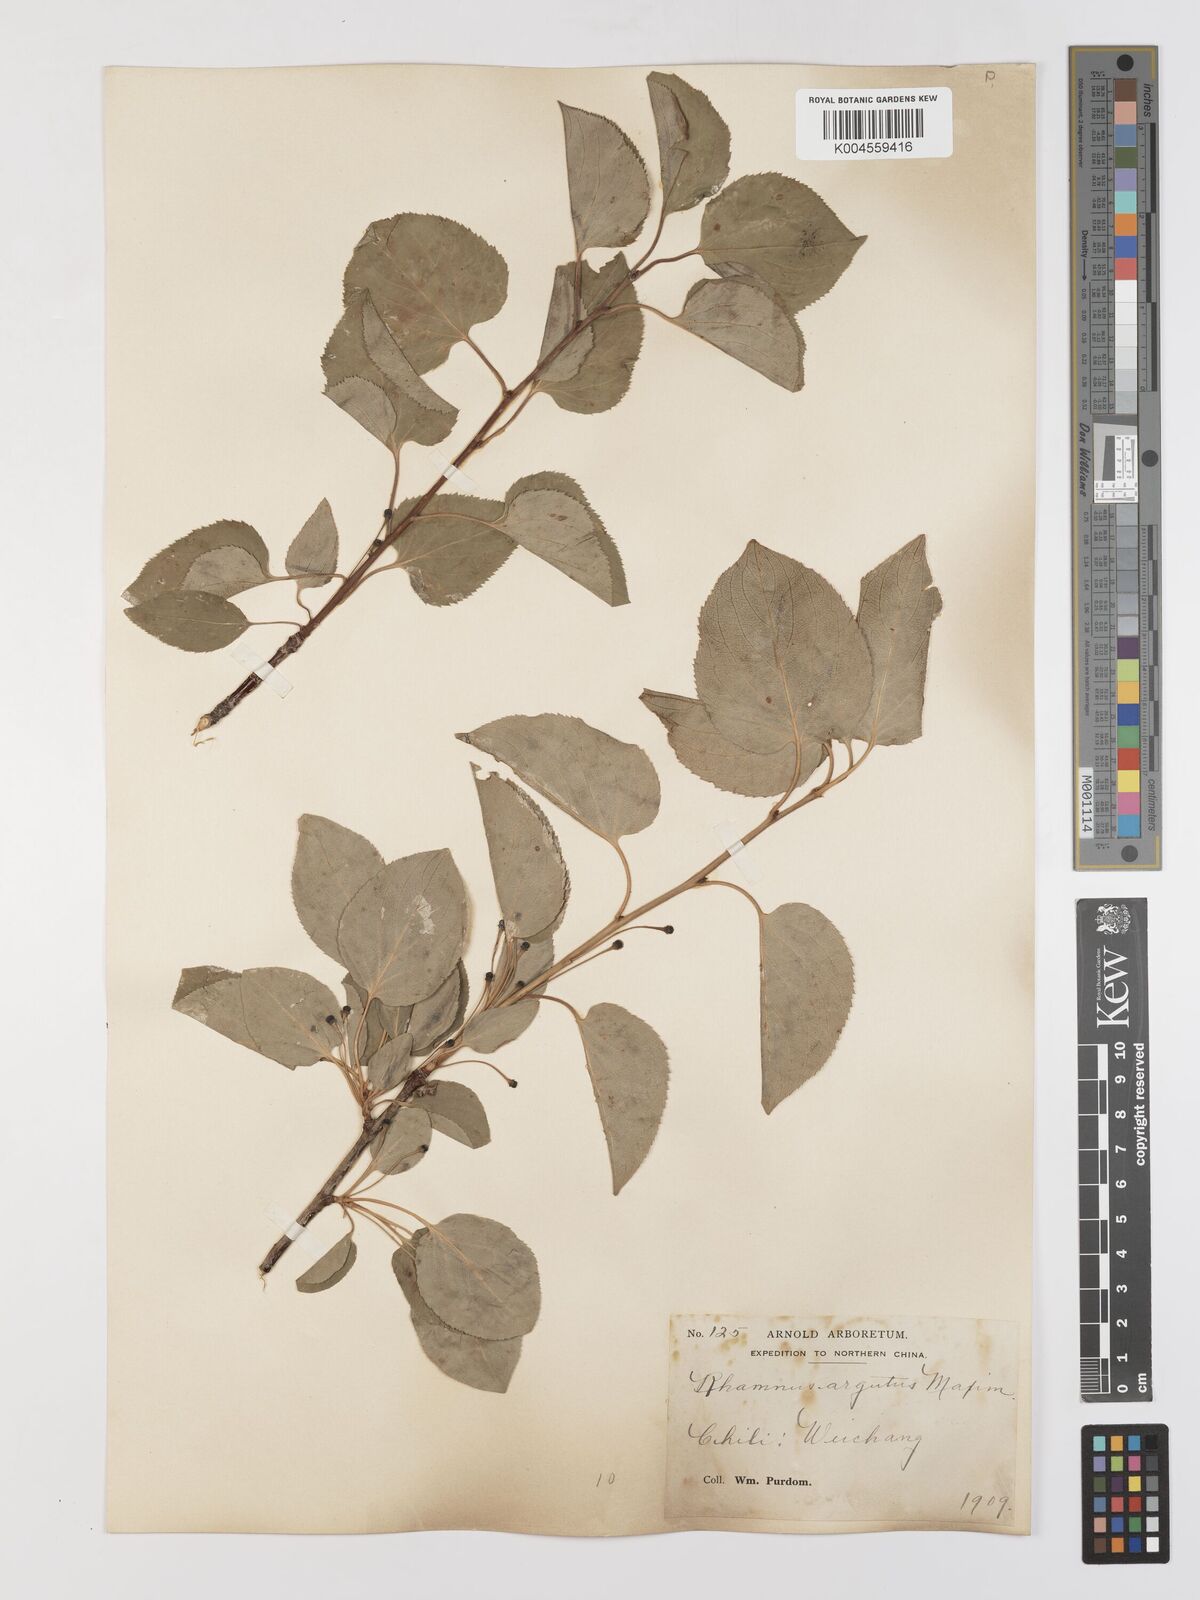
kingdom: Plantae
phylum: Tracheophyta
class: Magnoliopsida
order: Rosales
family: Rhamnaceae
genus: Rhamnus
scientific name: Rhamnus arguta
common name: Sharp-tooth buckthorn
